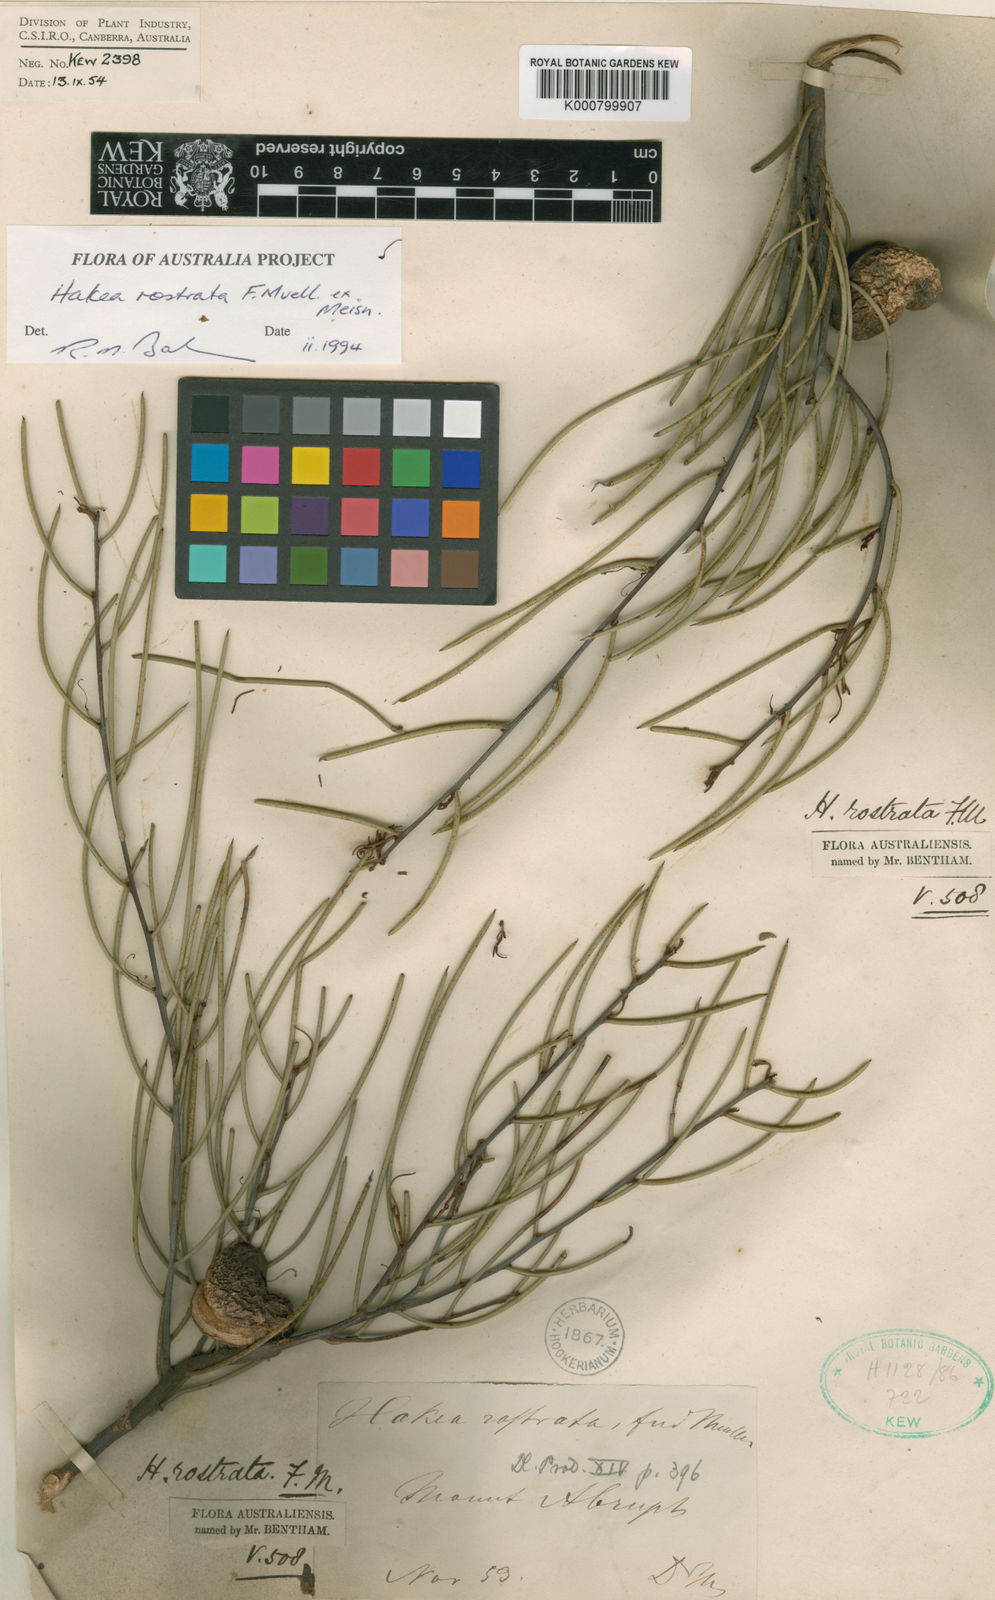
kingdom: Plantae
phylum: Tracheophyta
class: Magnoliopsida
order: Proteales
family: Proteaceae
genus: Hakea
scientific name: Hakea rostrata
